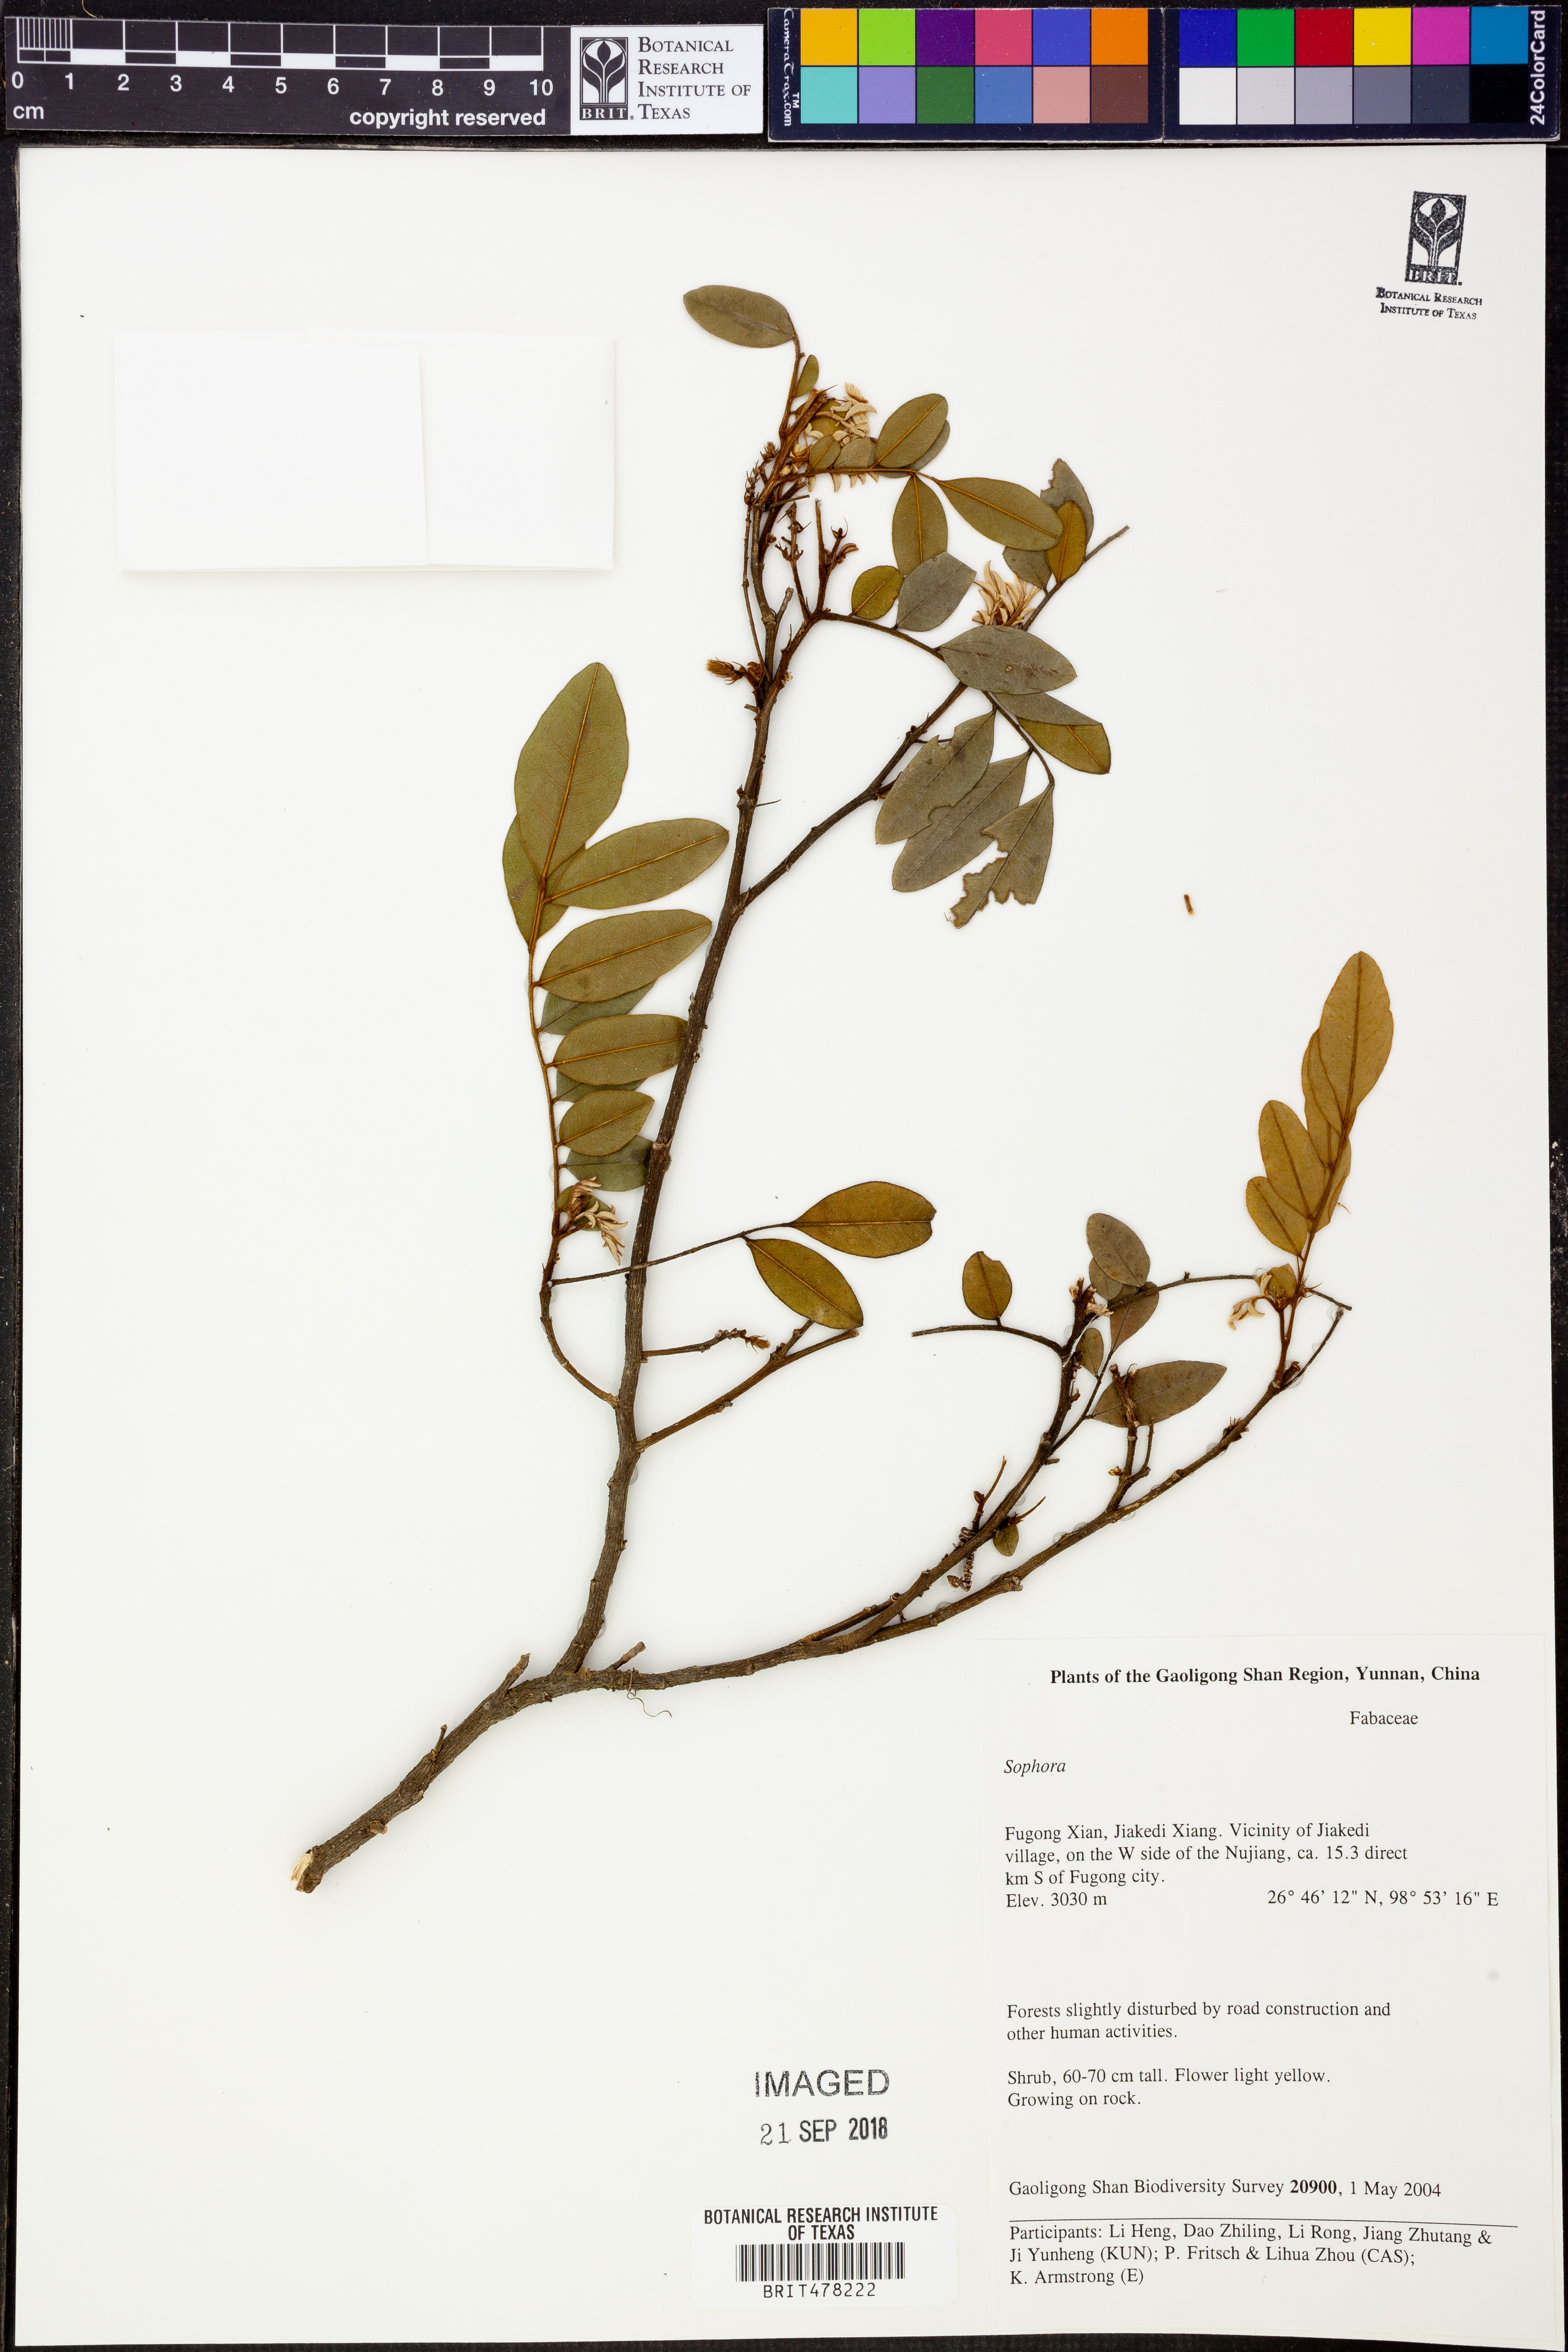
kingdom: Plantae
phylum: Tracheophyta
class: Magnoliopsida
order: Fabales
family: Fabaceae
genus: Sophora
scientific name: Sophora
